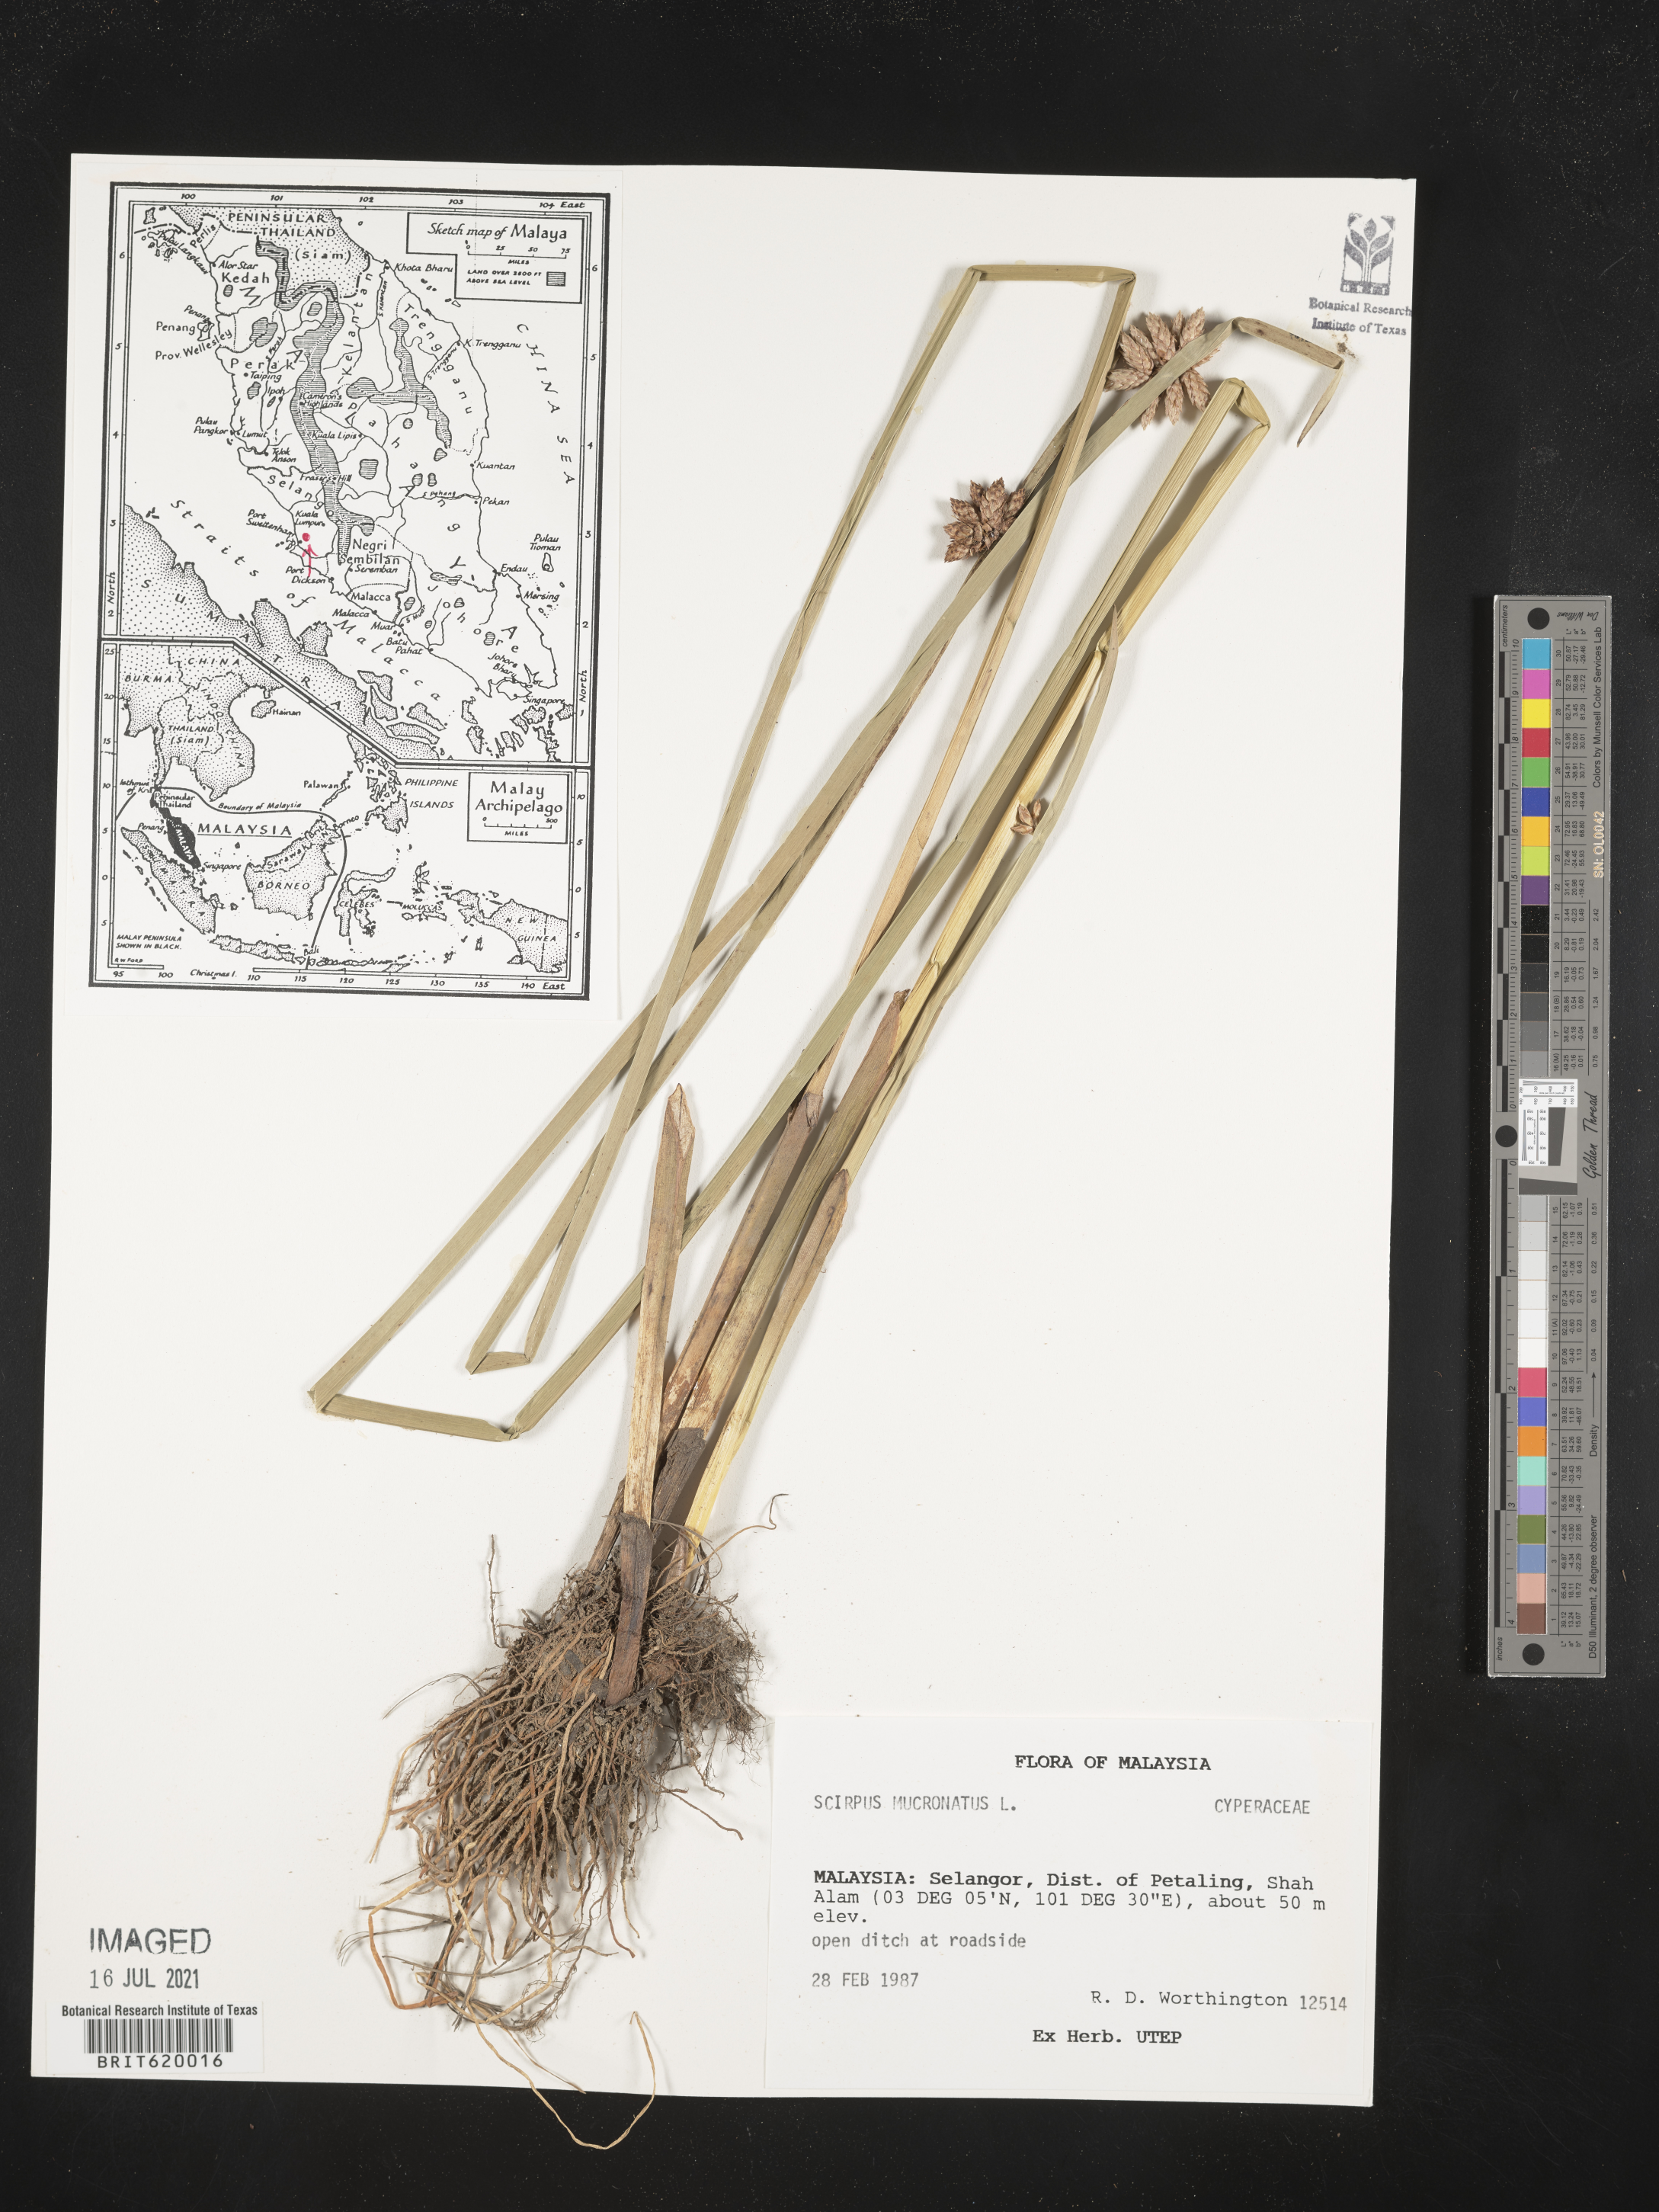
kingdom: Plantae
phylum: Tracheophyta
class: Liliopsida
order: Poales
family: Cyperaceae
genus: Schoenoplectiella
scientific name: Schoenoplectiella mucronata
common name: Bog bulrush
